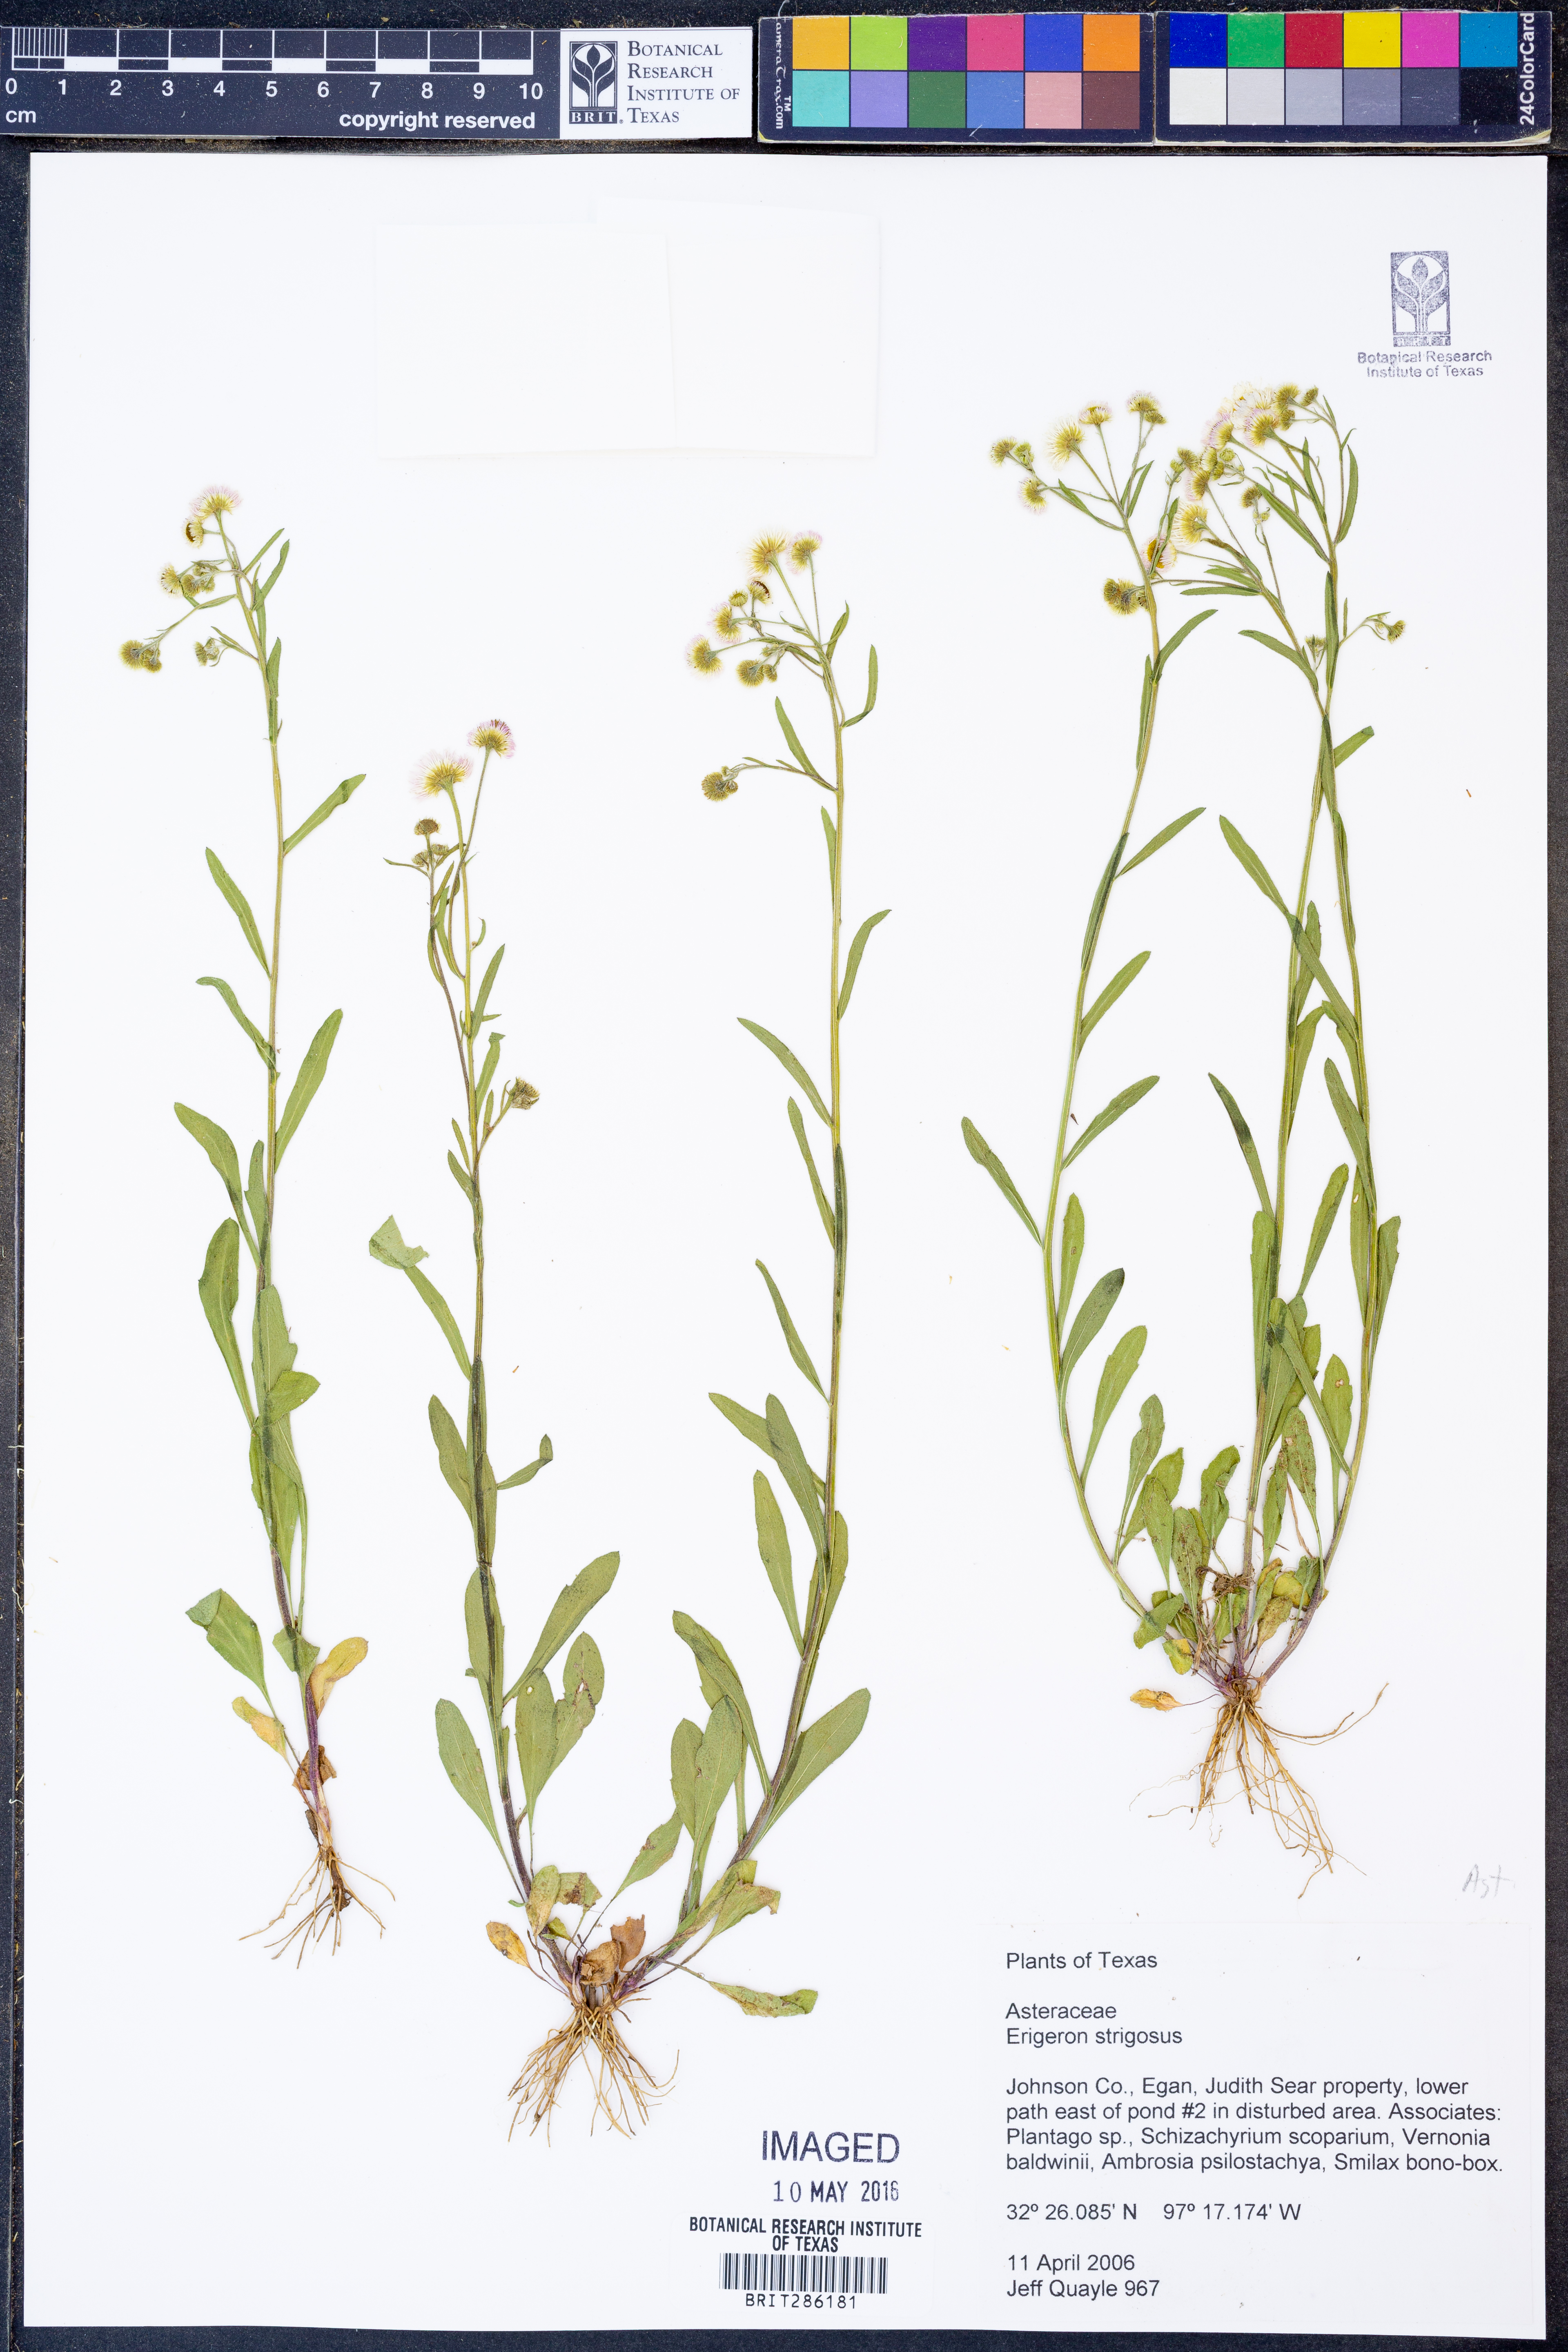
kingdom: Plantae
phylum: Tracheophyta
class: Magnoliopsida
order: Asterales
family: Asteraceae
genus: Erigeron
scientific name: Erigeron strigosus
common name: Common eastern fleabane
